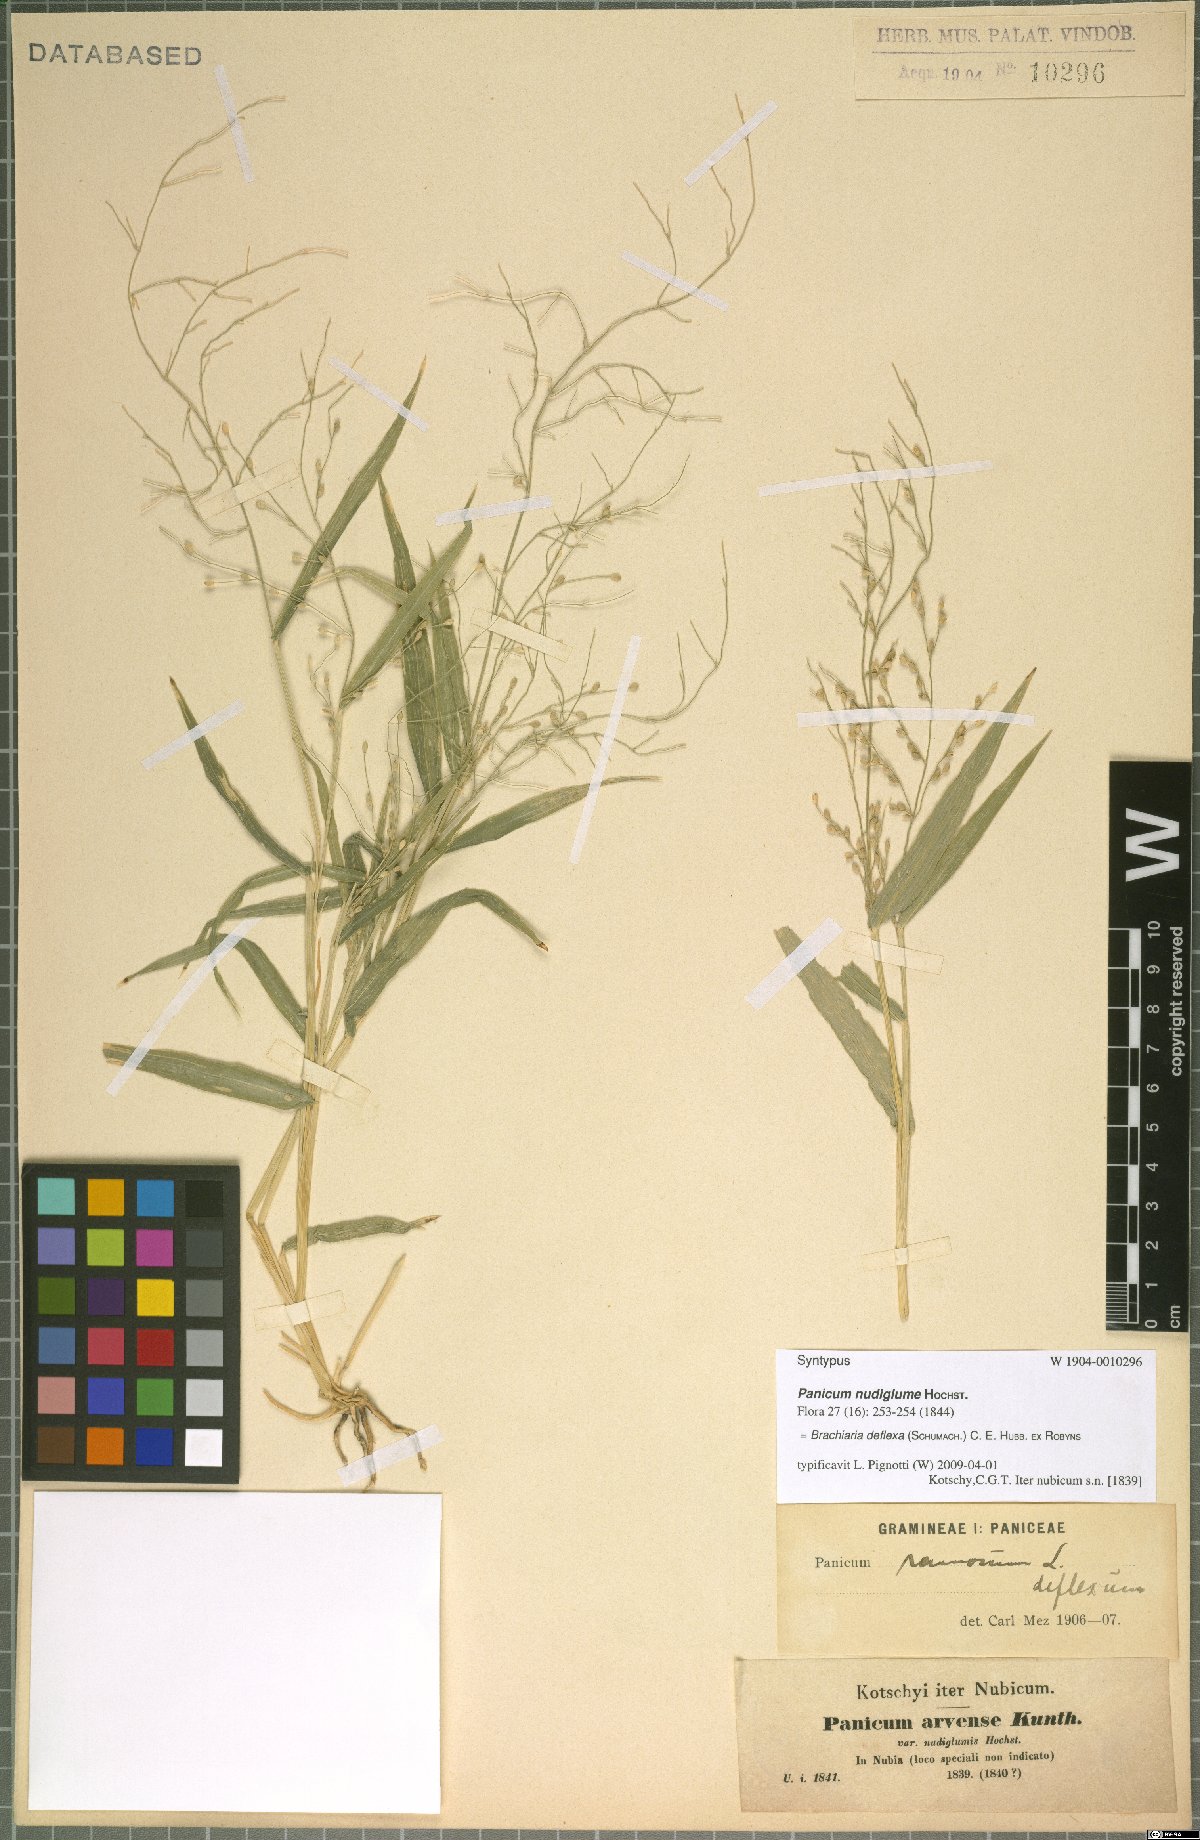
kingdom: Plantae
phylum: Tracheophyta
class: Liliopsida
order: Poales
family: Poaceae
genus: Urochloa
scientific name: Urochloa deflexa
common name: Guinea millet
